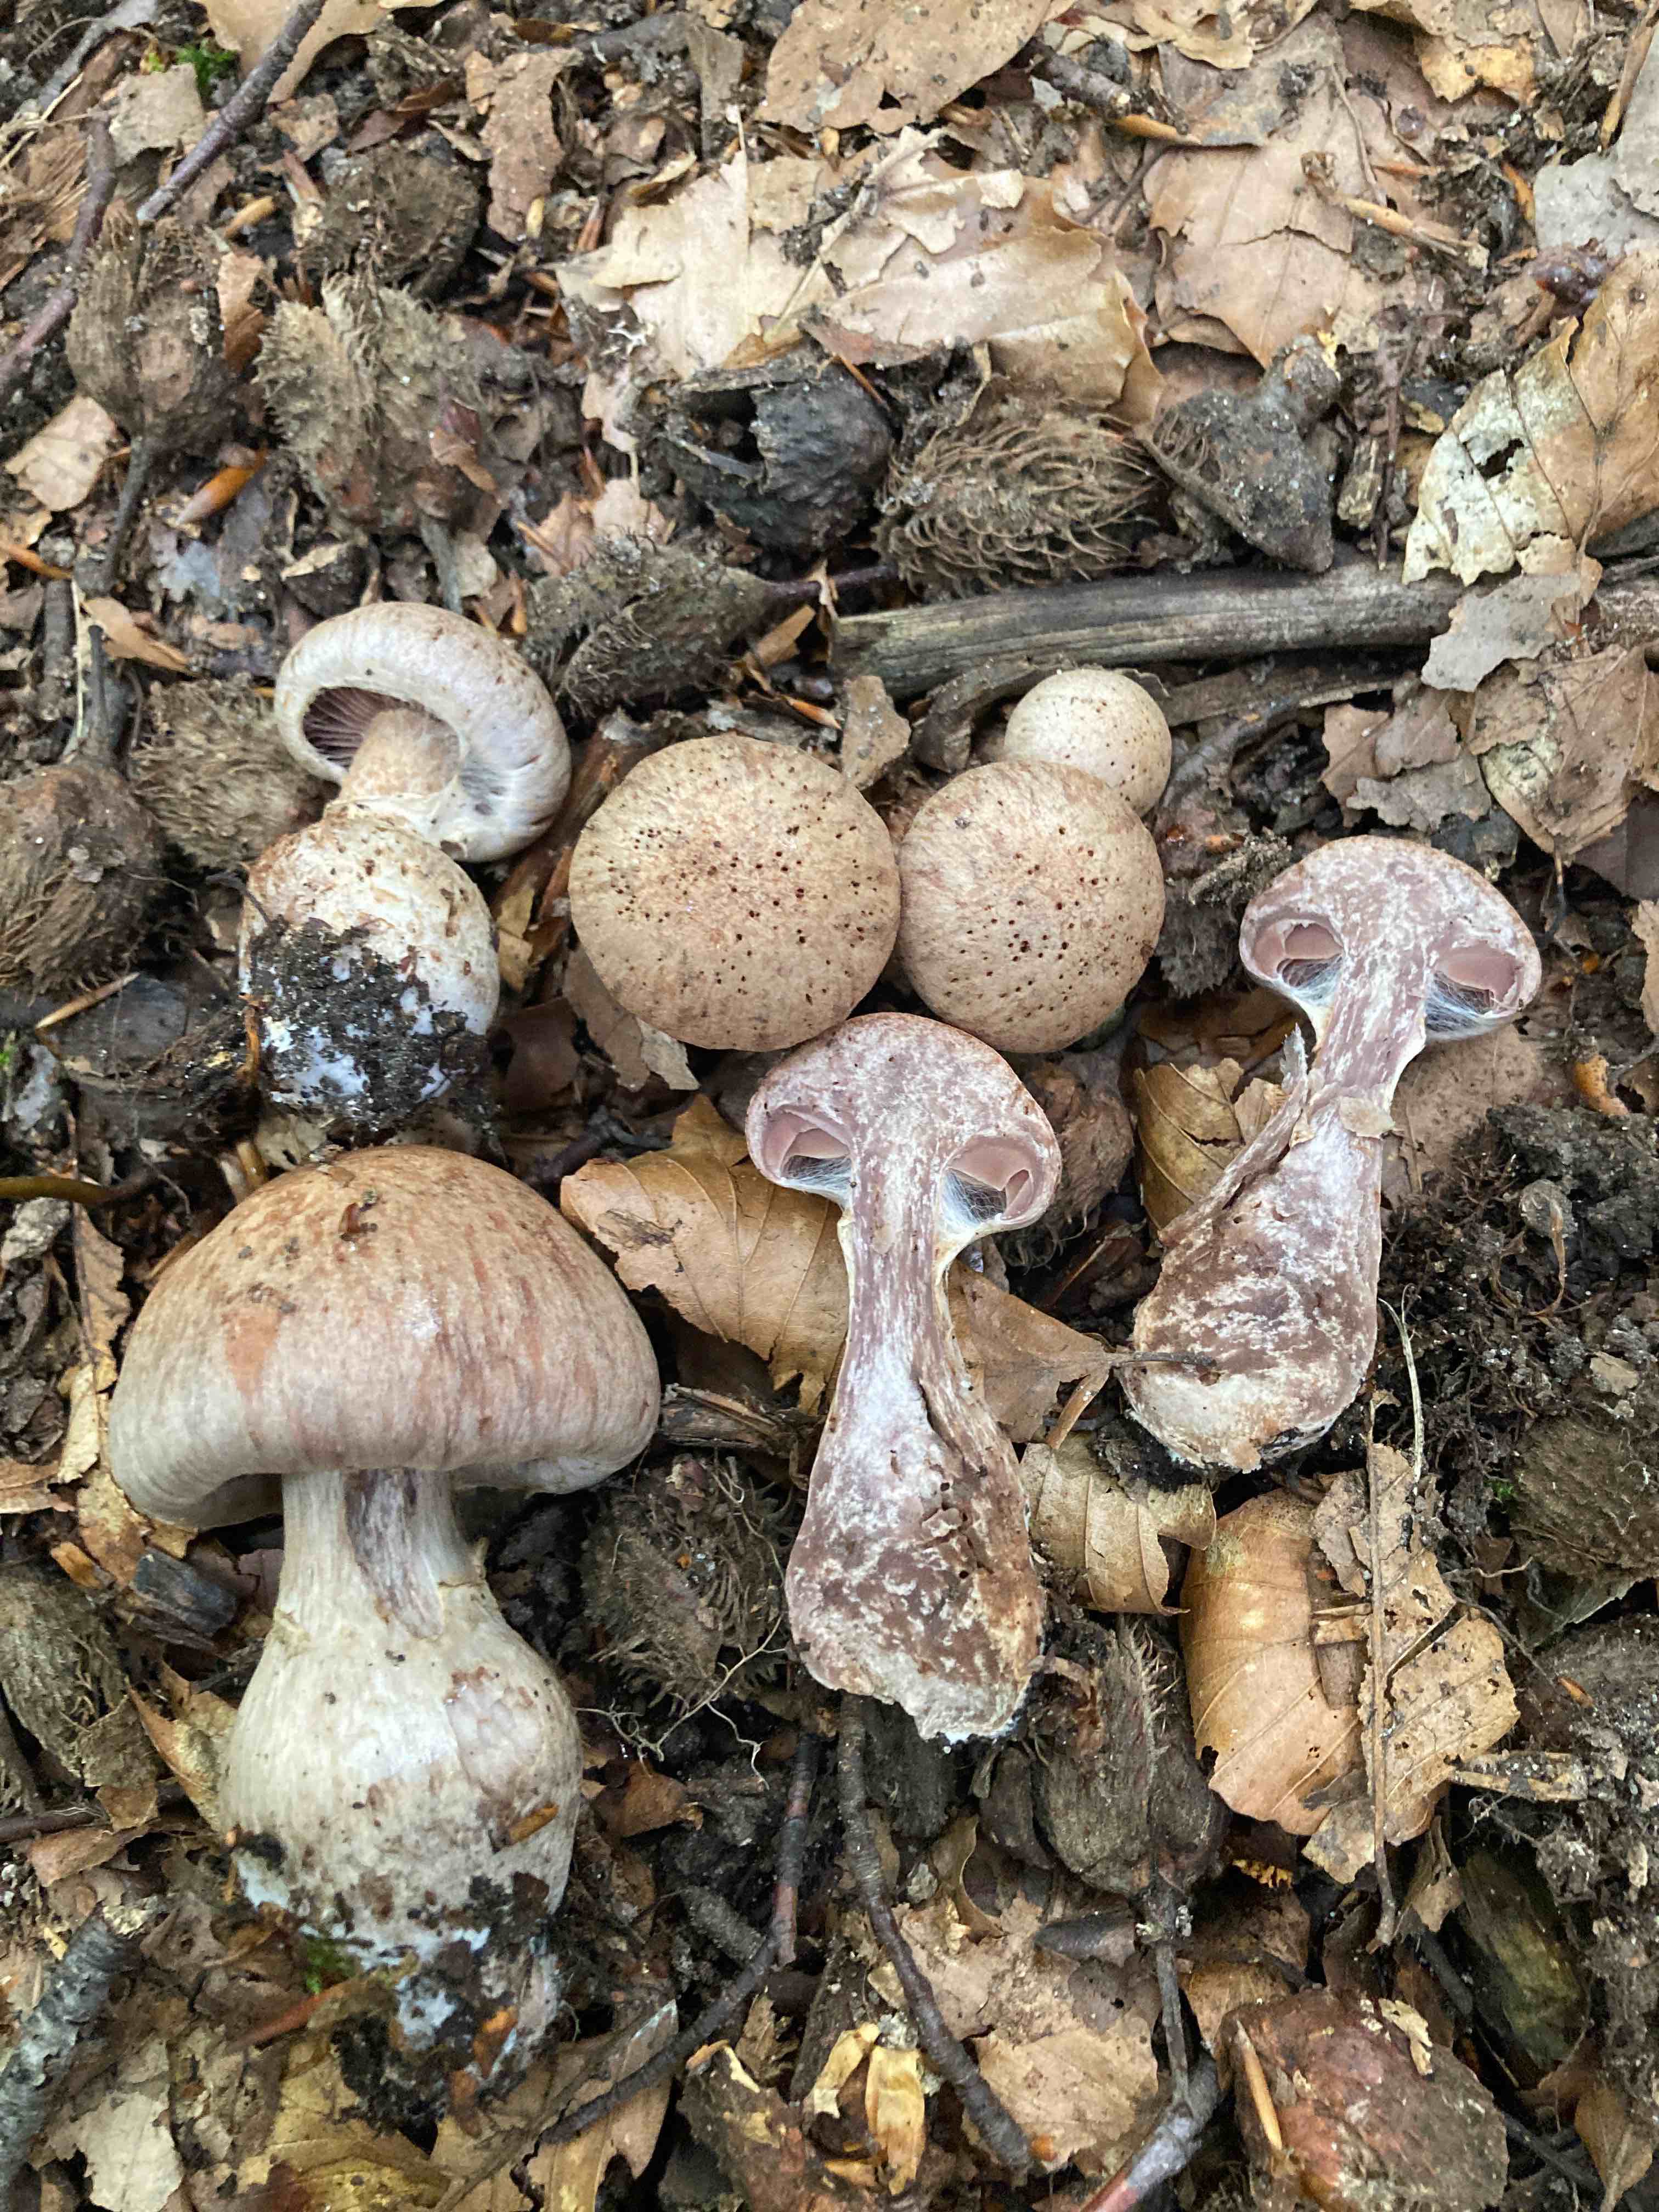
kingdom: Fungi
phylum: Basidiomycota
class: Agaricomycetes
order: Agaricales
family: Cortinariaceae
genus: Cortinarius
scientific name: Cortinarius torvus
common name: champignonagtig slørhat
